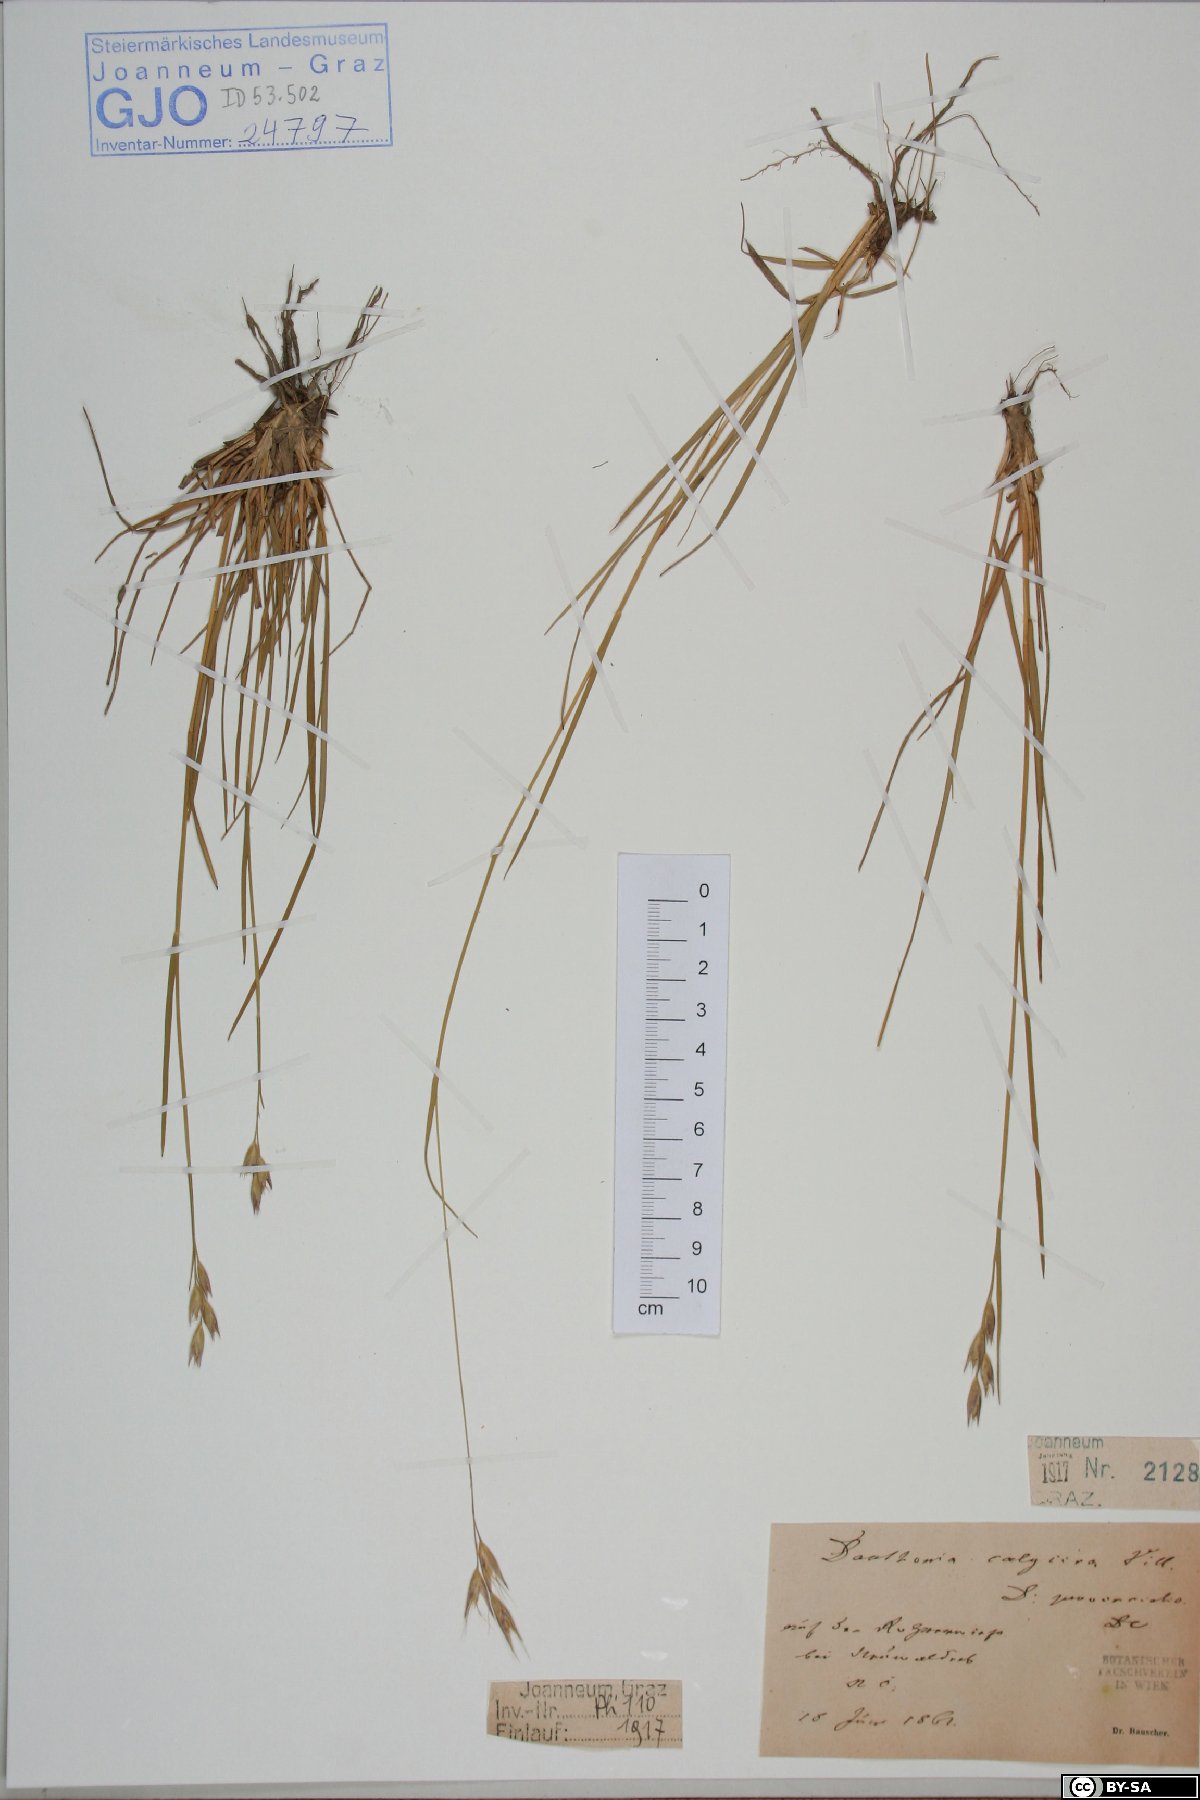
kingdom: Plantae
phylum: Tracheophyta
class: Liliopsida
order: Poales
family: Poaceae
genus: Danthonia
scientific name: Danthonia alpina
